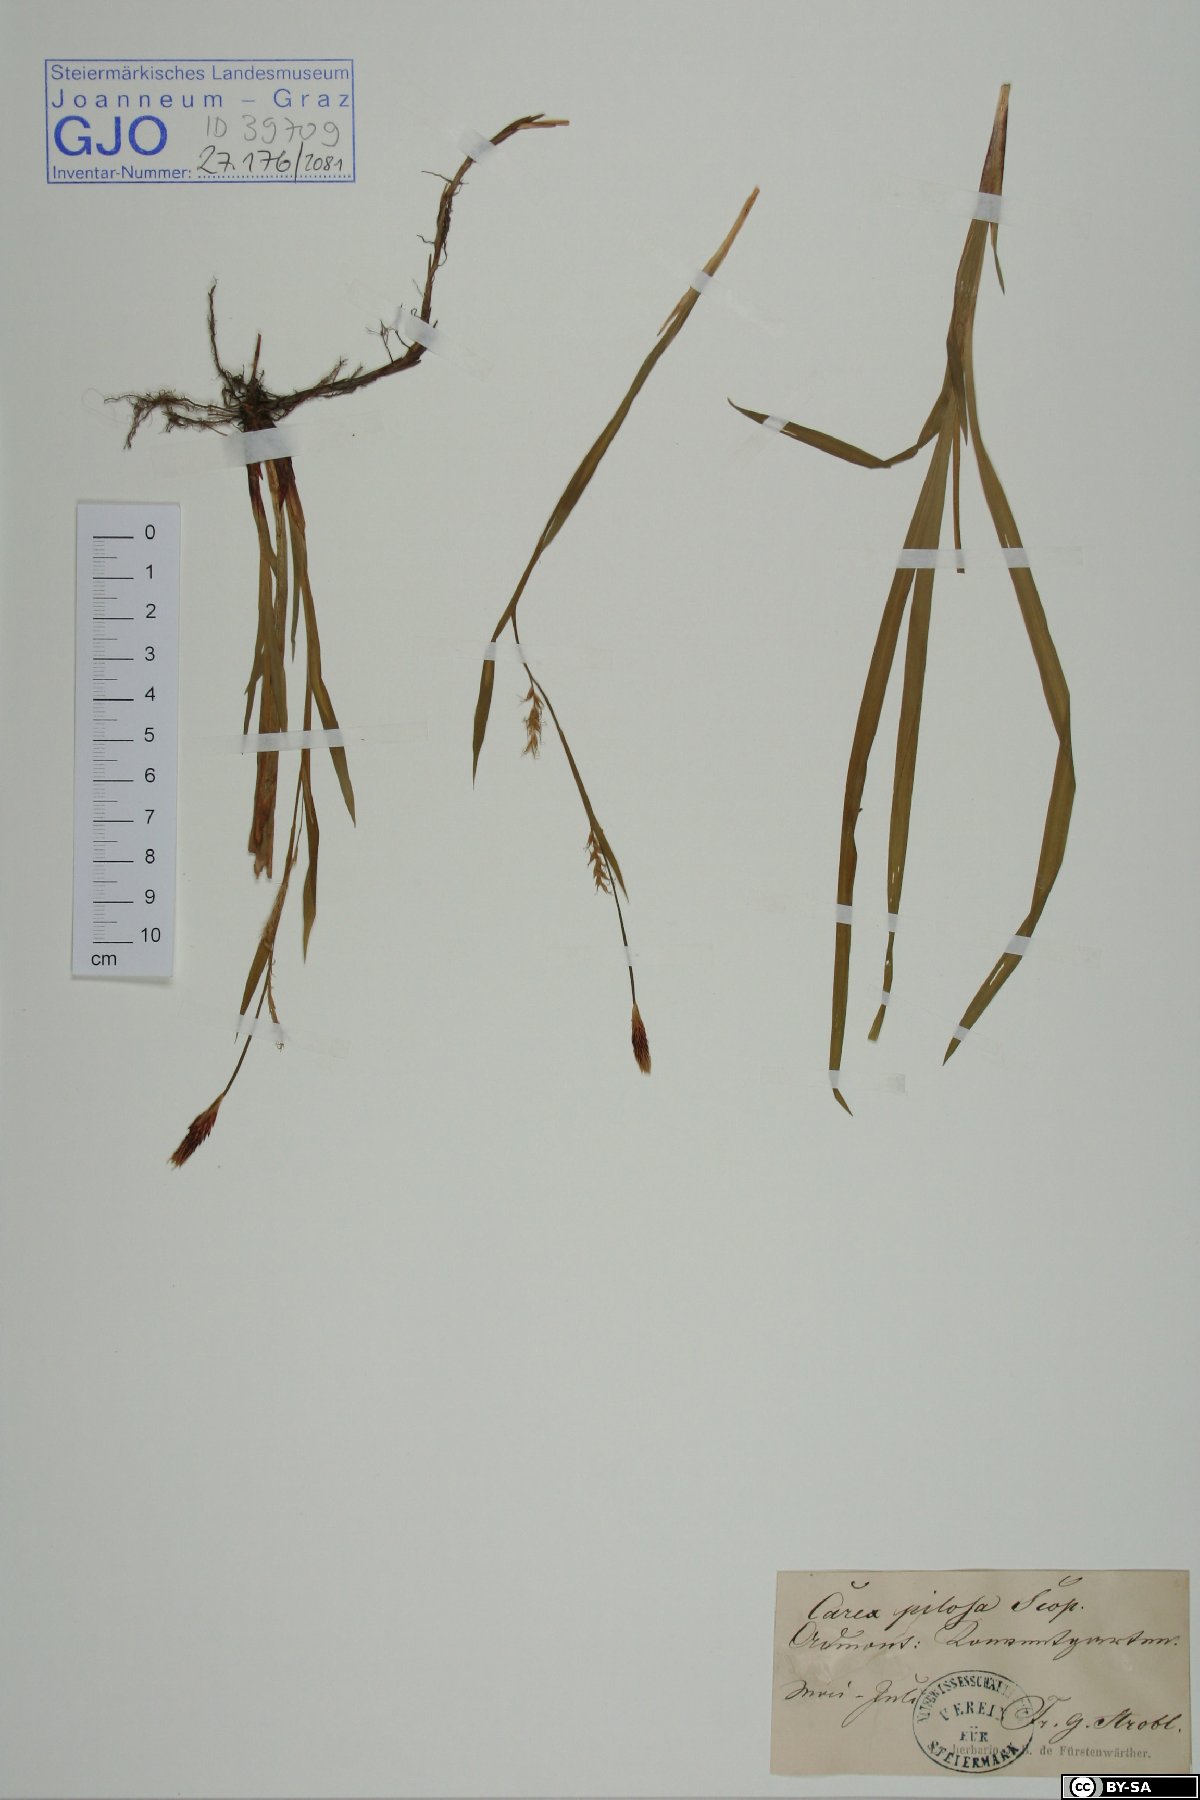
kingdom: Plantae
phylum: Tracheophyta
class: Liliopsida
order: Poales
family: Cyperaceae
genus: Carex
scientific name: Carex pilosa
